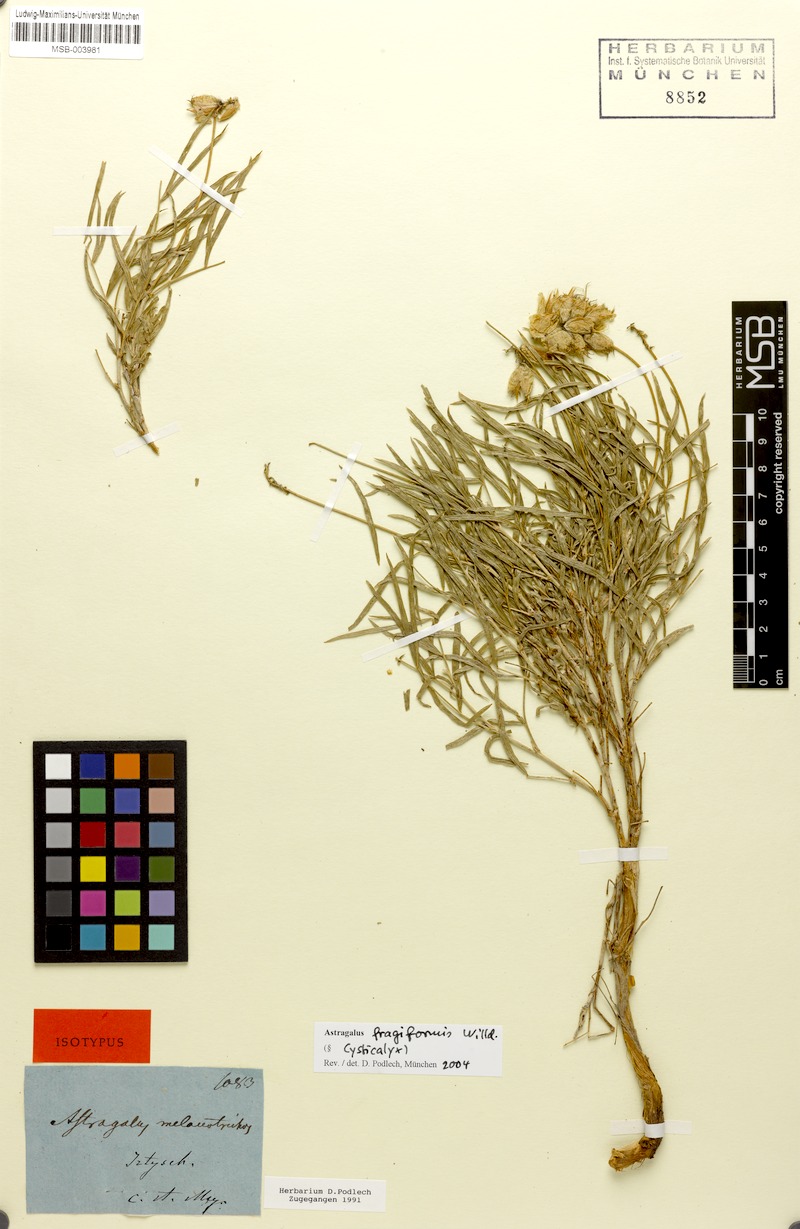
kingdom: Plantae
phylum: Tracheophyta
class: Magnoliopsida
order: Fabales
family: Fabaceae
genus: Astragalus
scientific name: Astragalus fragiformis
